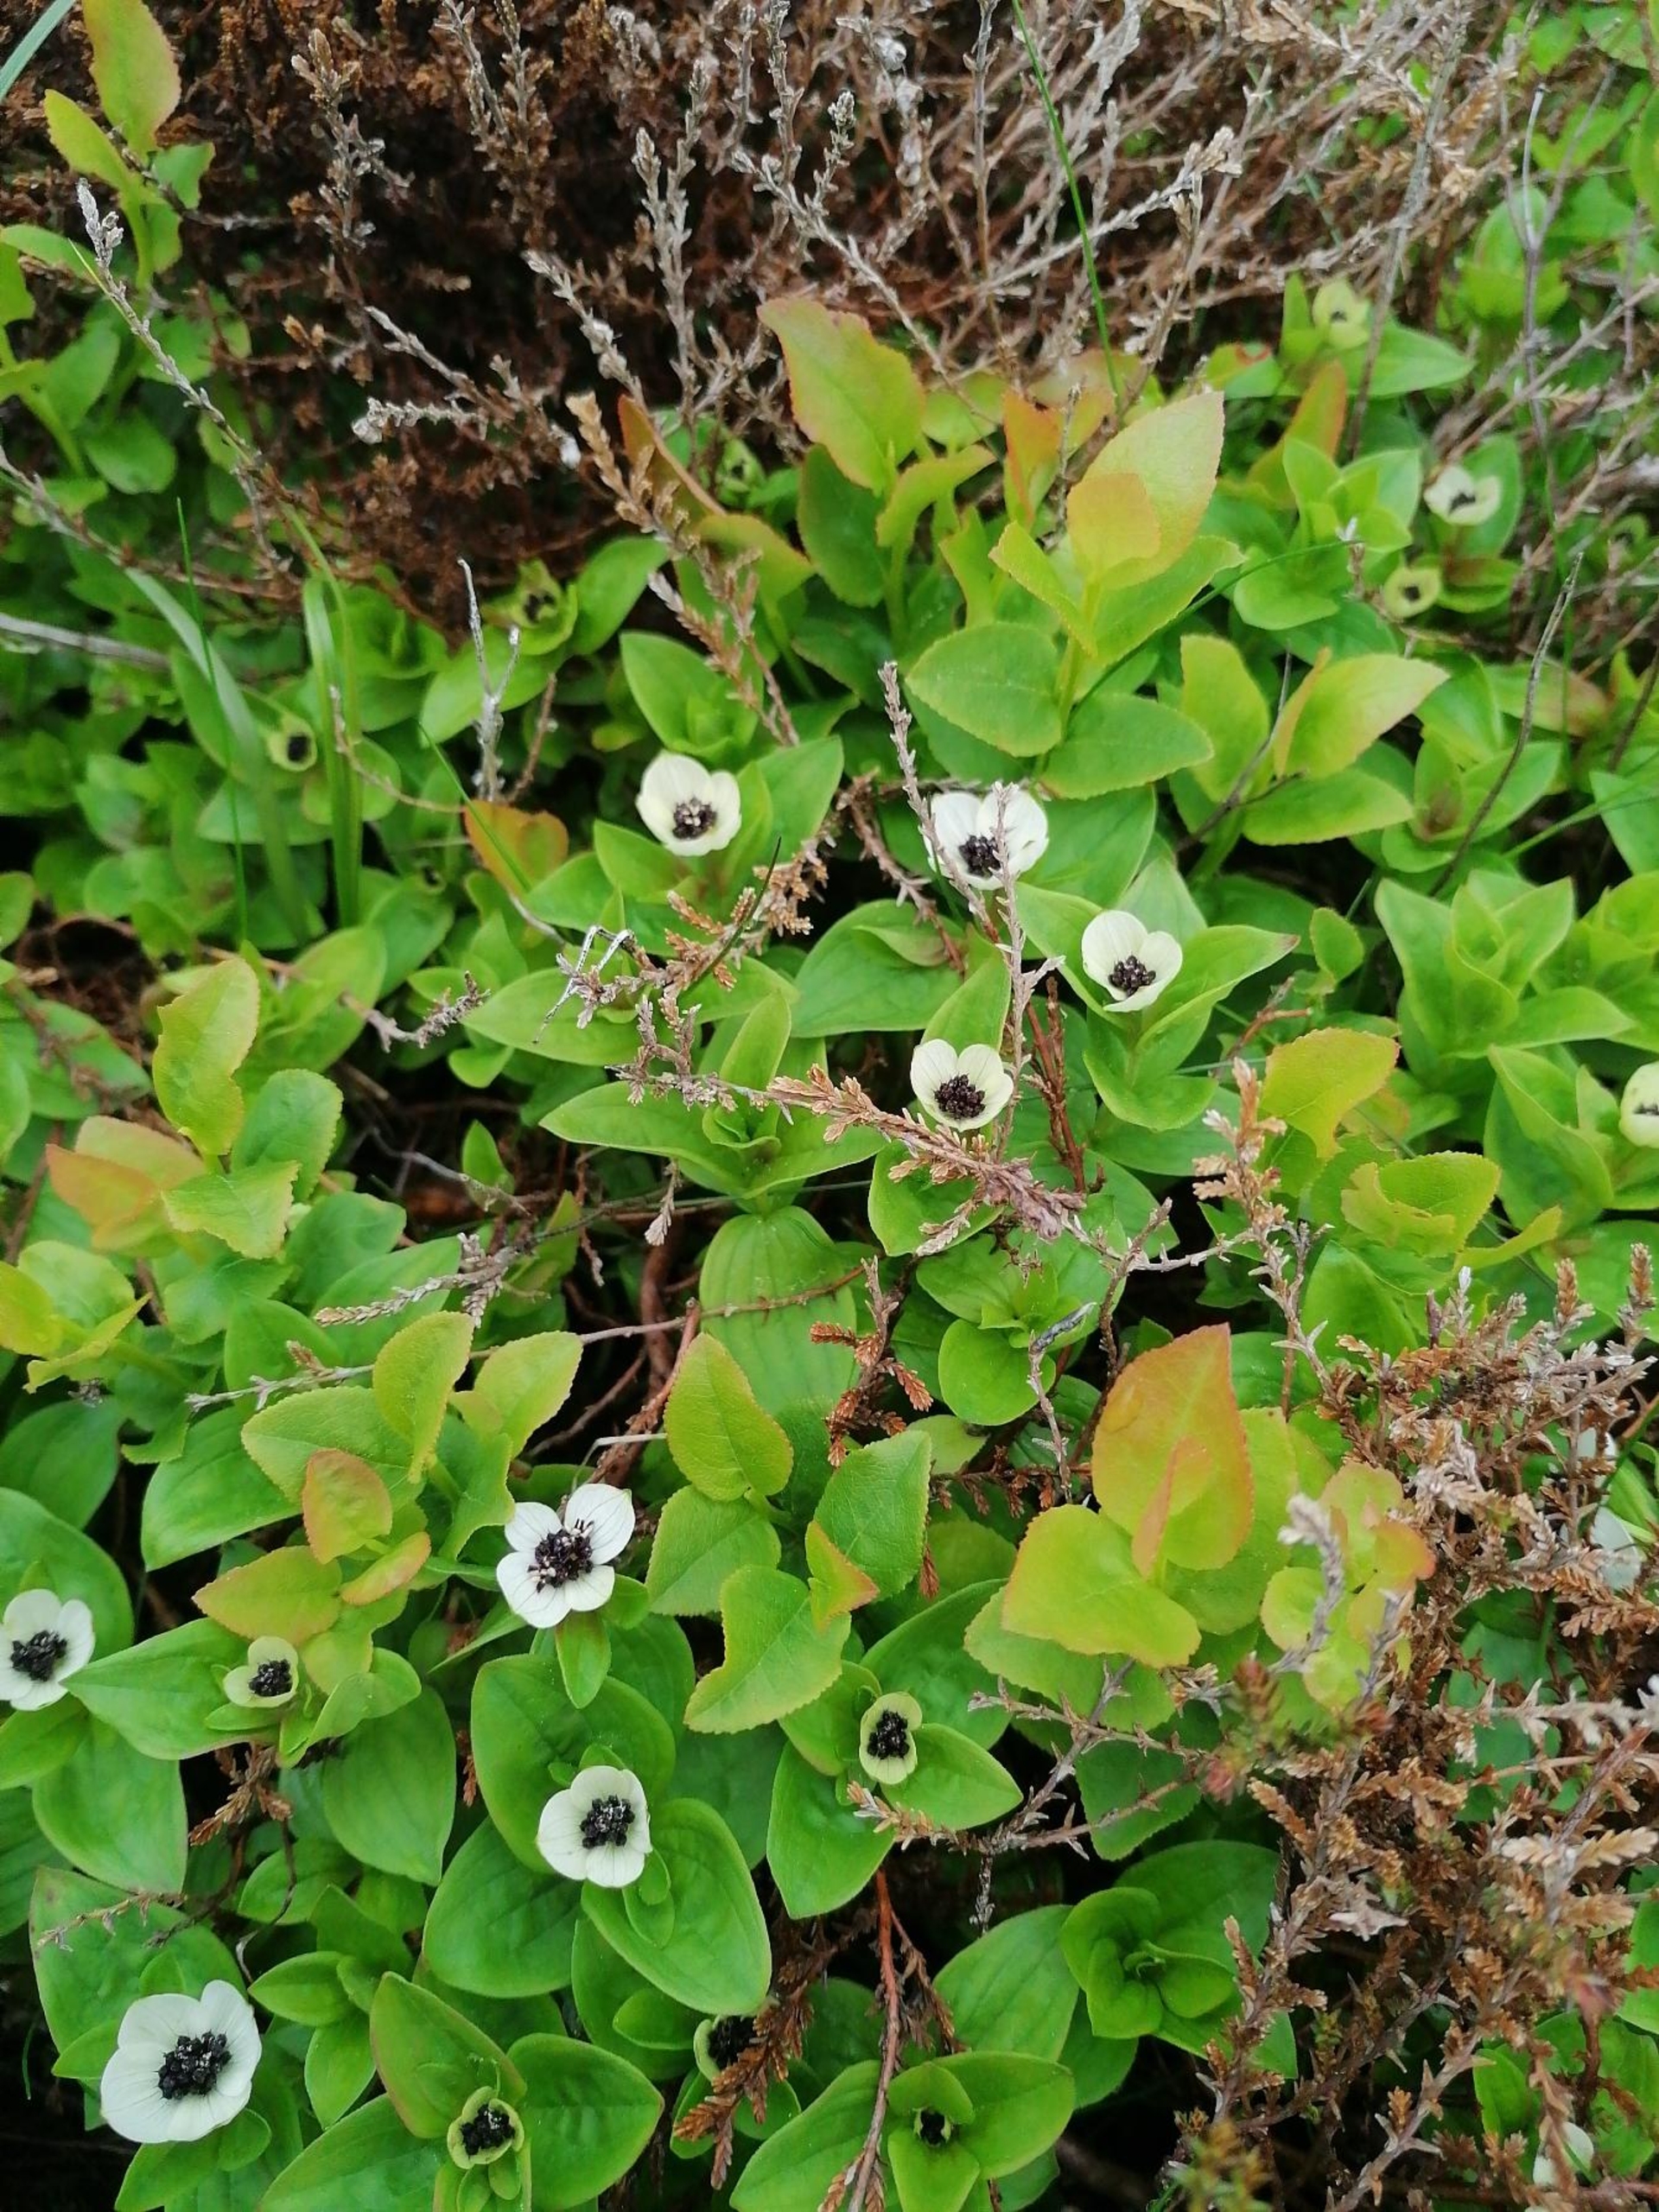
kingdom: Plantae
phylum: Tracheophyta
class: Magnoliopsida
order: Cornales
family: Cornaceae
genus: Cornus
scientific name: Cornus suecica
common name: Hønsebær
